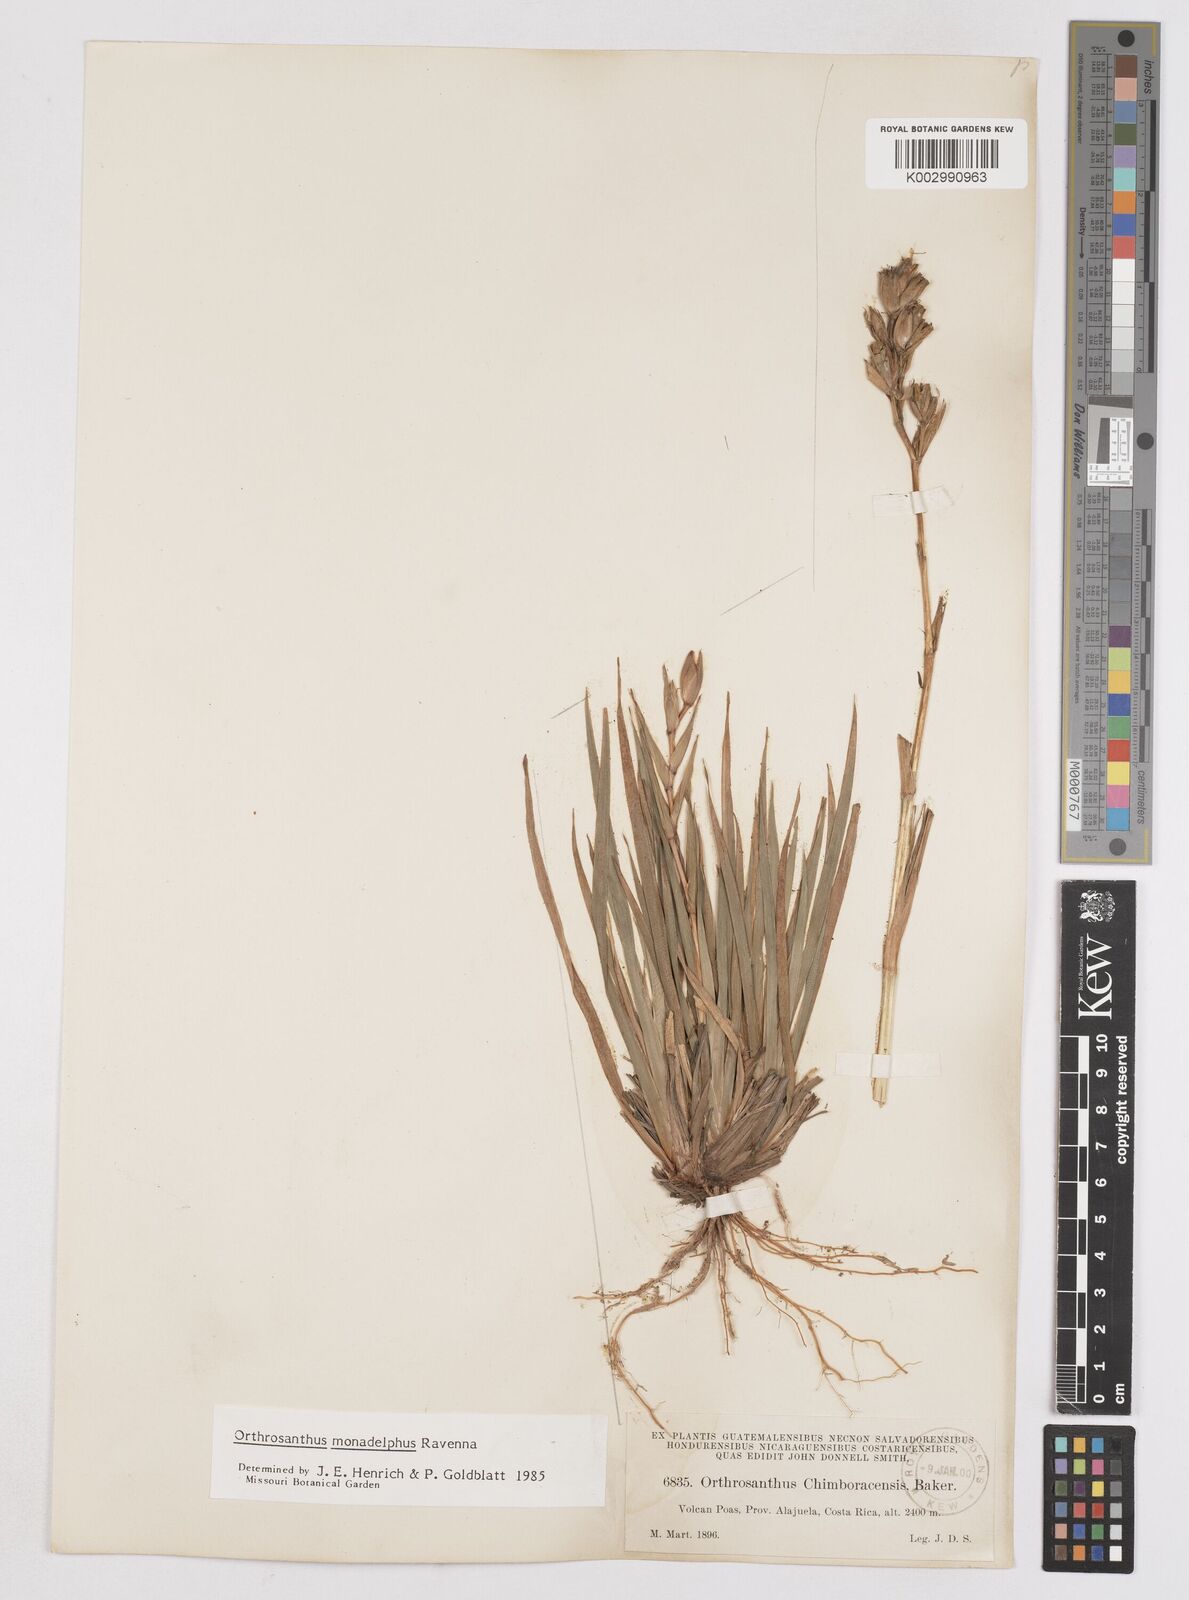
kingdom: Plantae
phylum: Tracheophyta
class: Liliopsida
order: Asparagales
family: Iridaceae
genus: Orthrosanthus
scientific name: Orthrosanthus monadelphus
